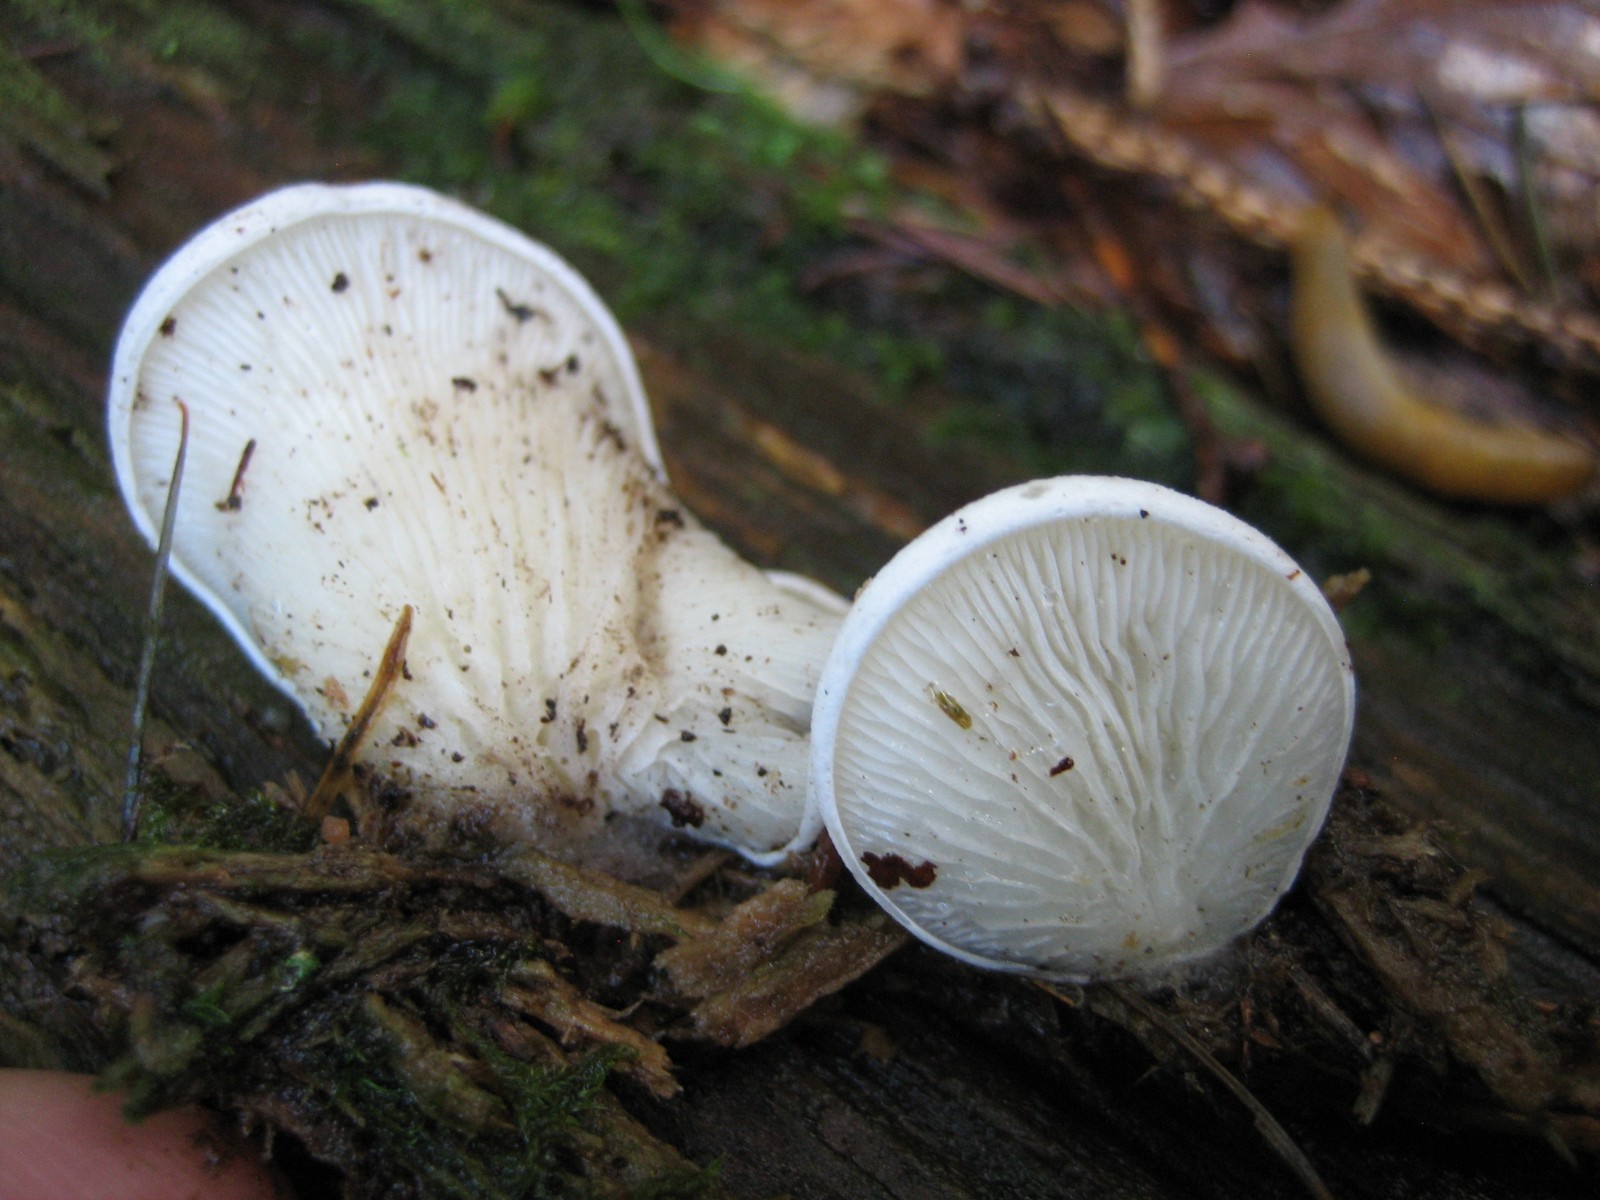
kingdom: Fungi
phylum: Basidiomycota
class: Agaricomycetes
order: Agaricales
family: Marasmiaceae
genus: Pleurocybella
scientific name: Pleurocybella porrigens
